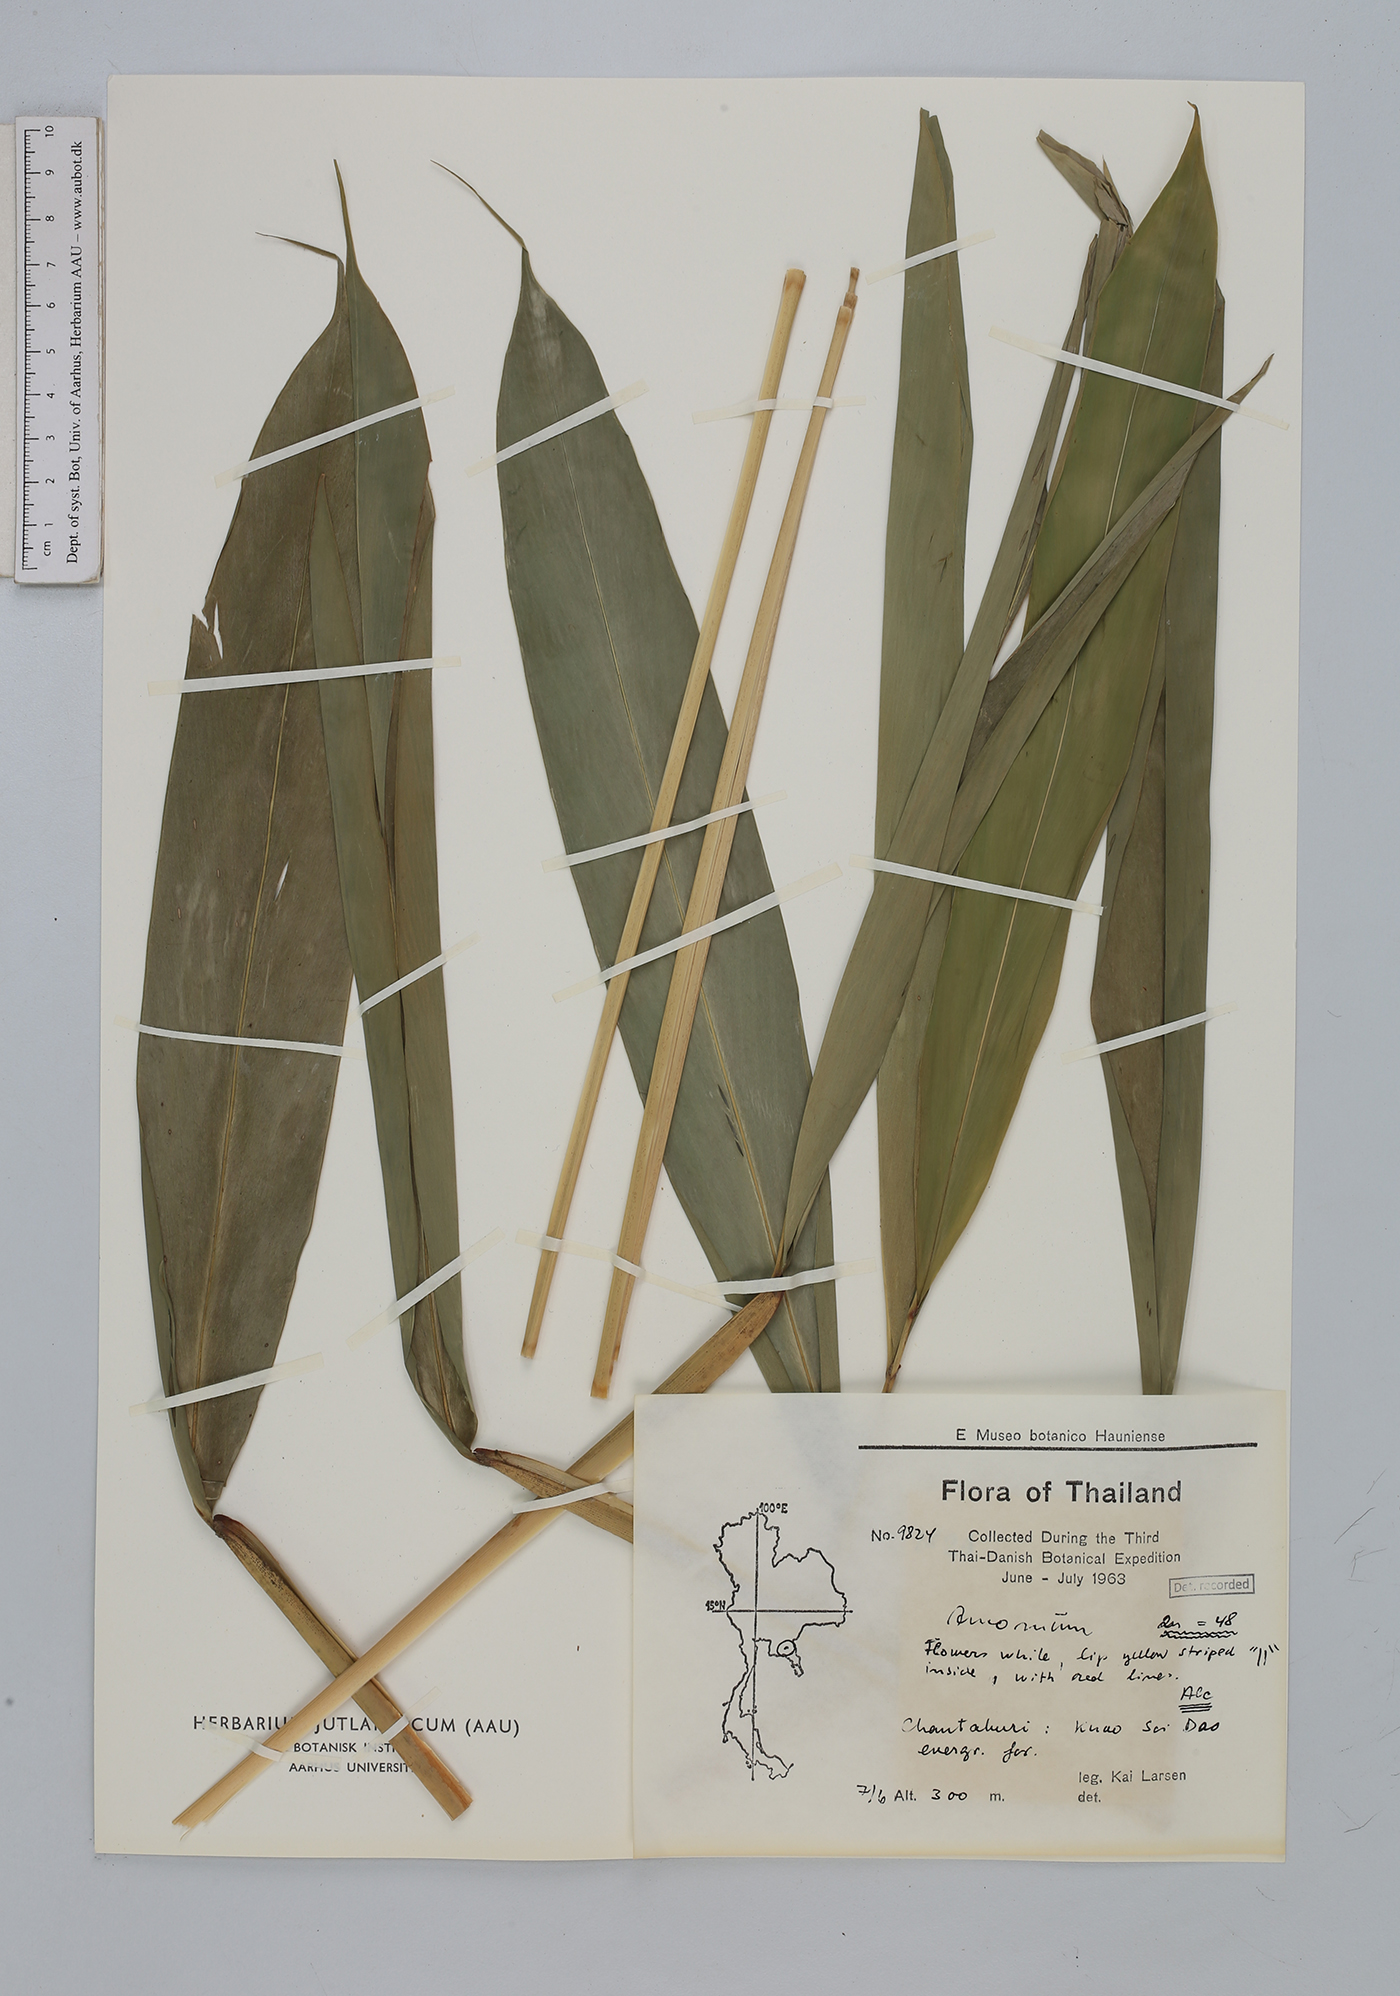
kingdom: Plantae
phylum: Tracheophyta
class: Liliopsida
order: Zingiberales
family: Zingiberaceae
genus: Amomum
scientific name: Amomum
